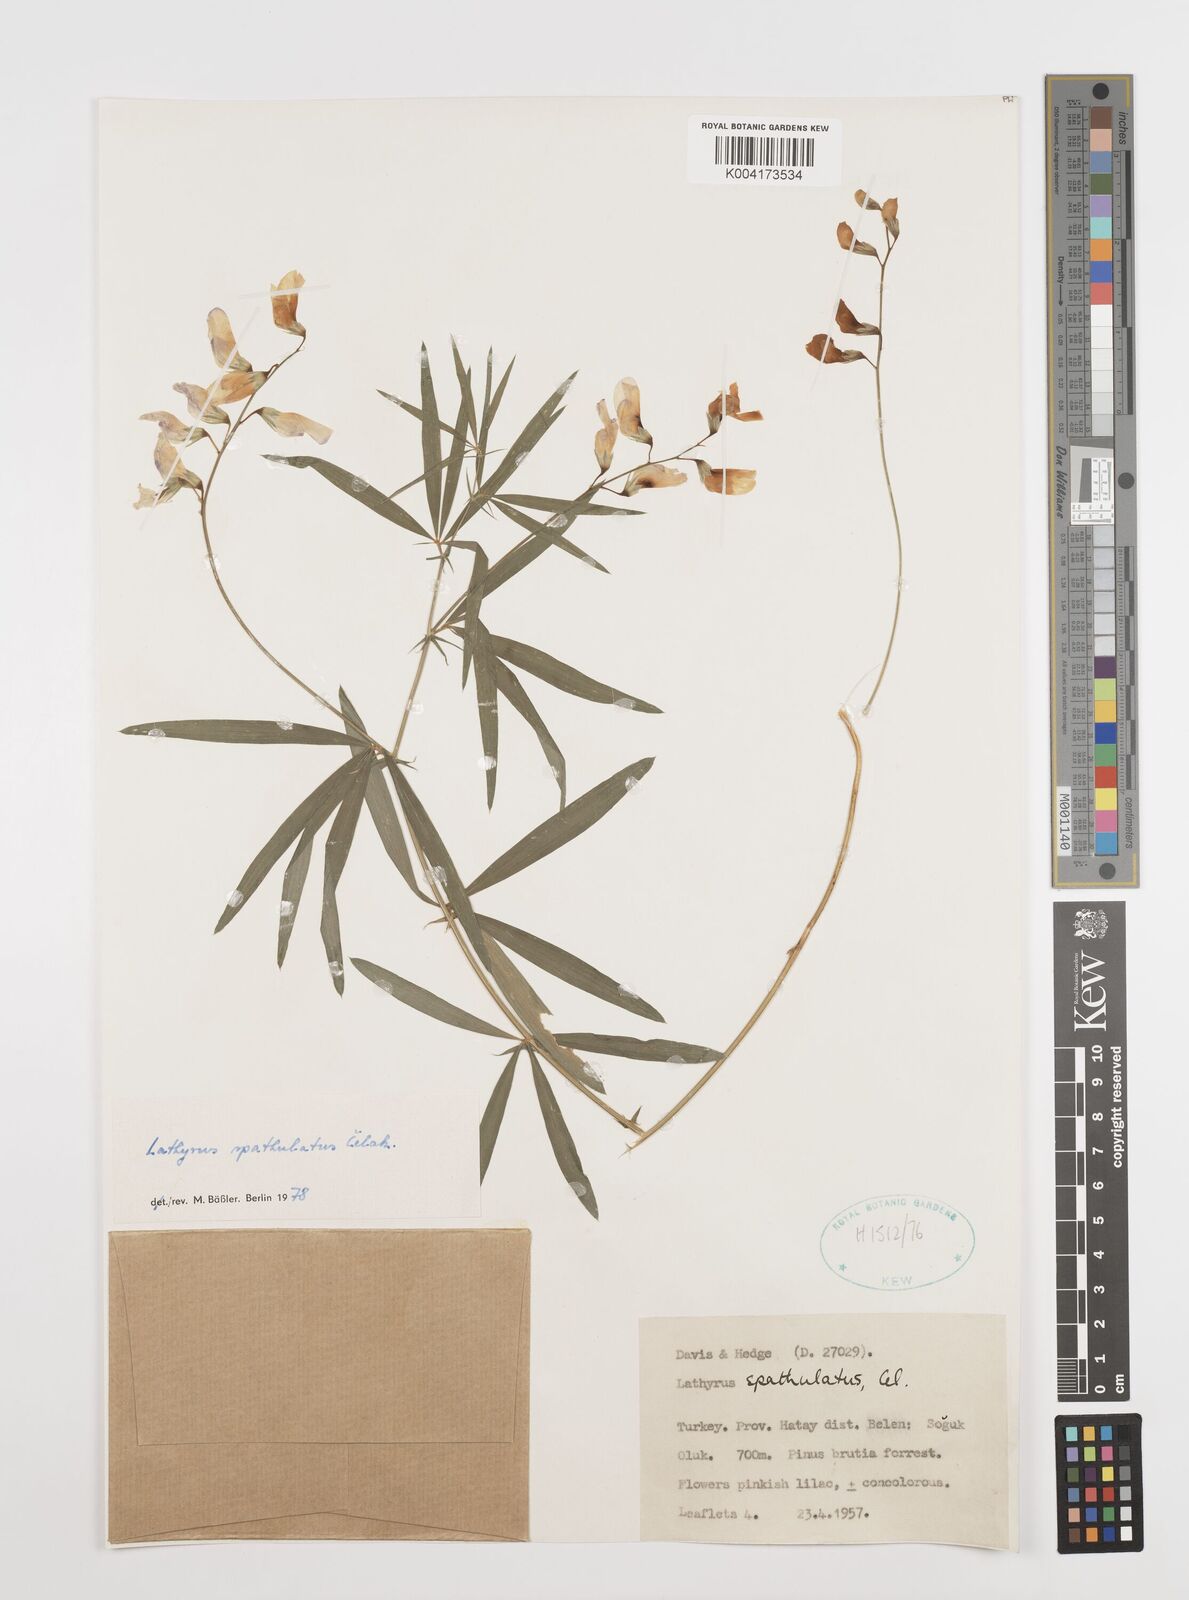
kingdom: Plantae
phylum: Tracheophyta
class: Magnoliopsida
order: Fabales
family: Fabaceae
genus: Lathyrus
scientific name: Lathyrus spathulatus
